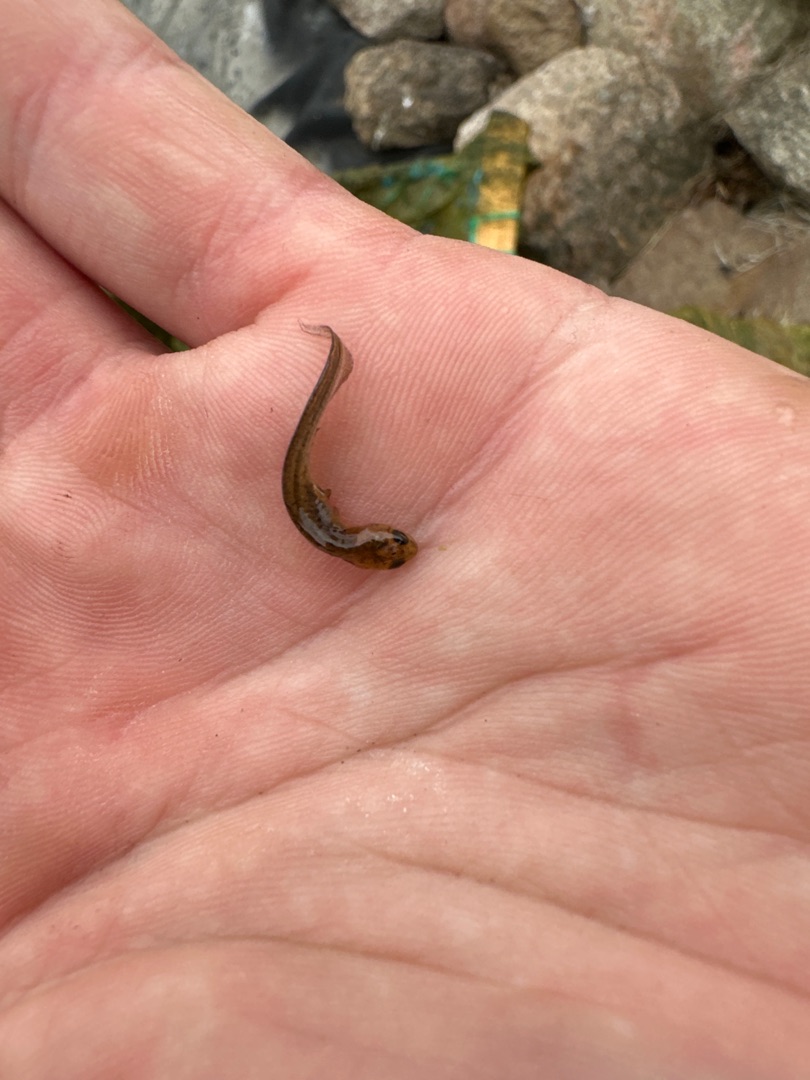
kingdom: Animalia
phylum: Chordata
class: Amphibia
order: Caudata
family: Salamandridae
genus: Lissotriton
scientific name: Lissotriton vulgaris
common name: Lille vandsalamander
